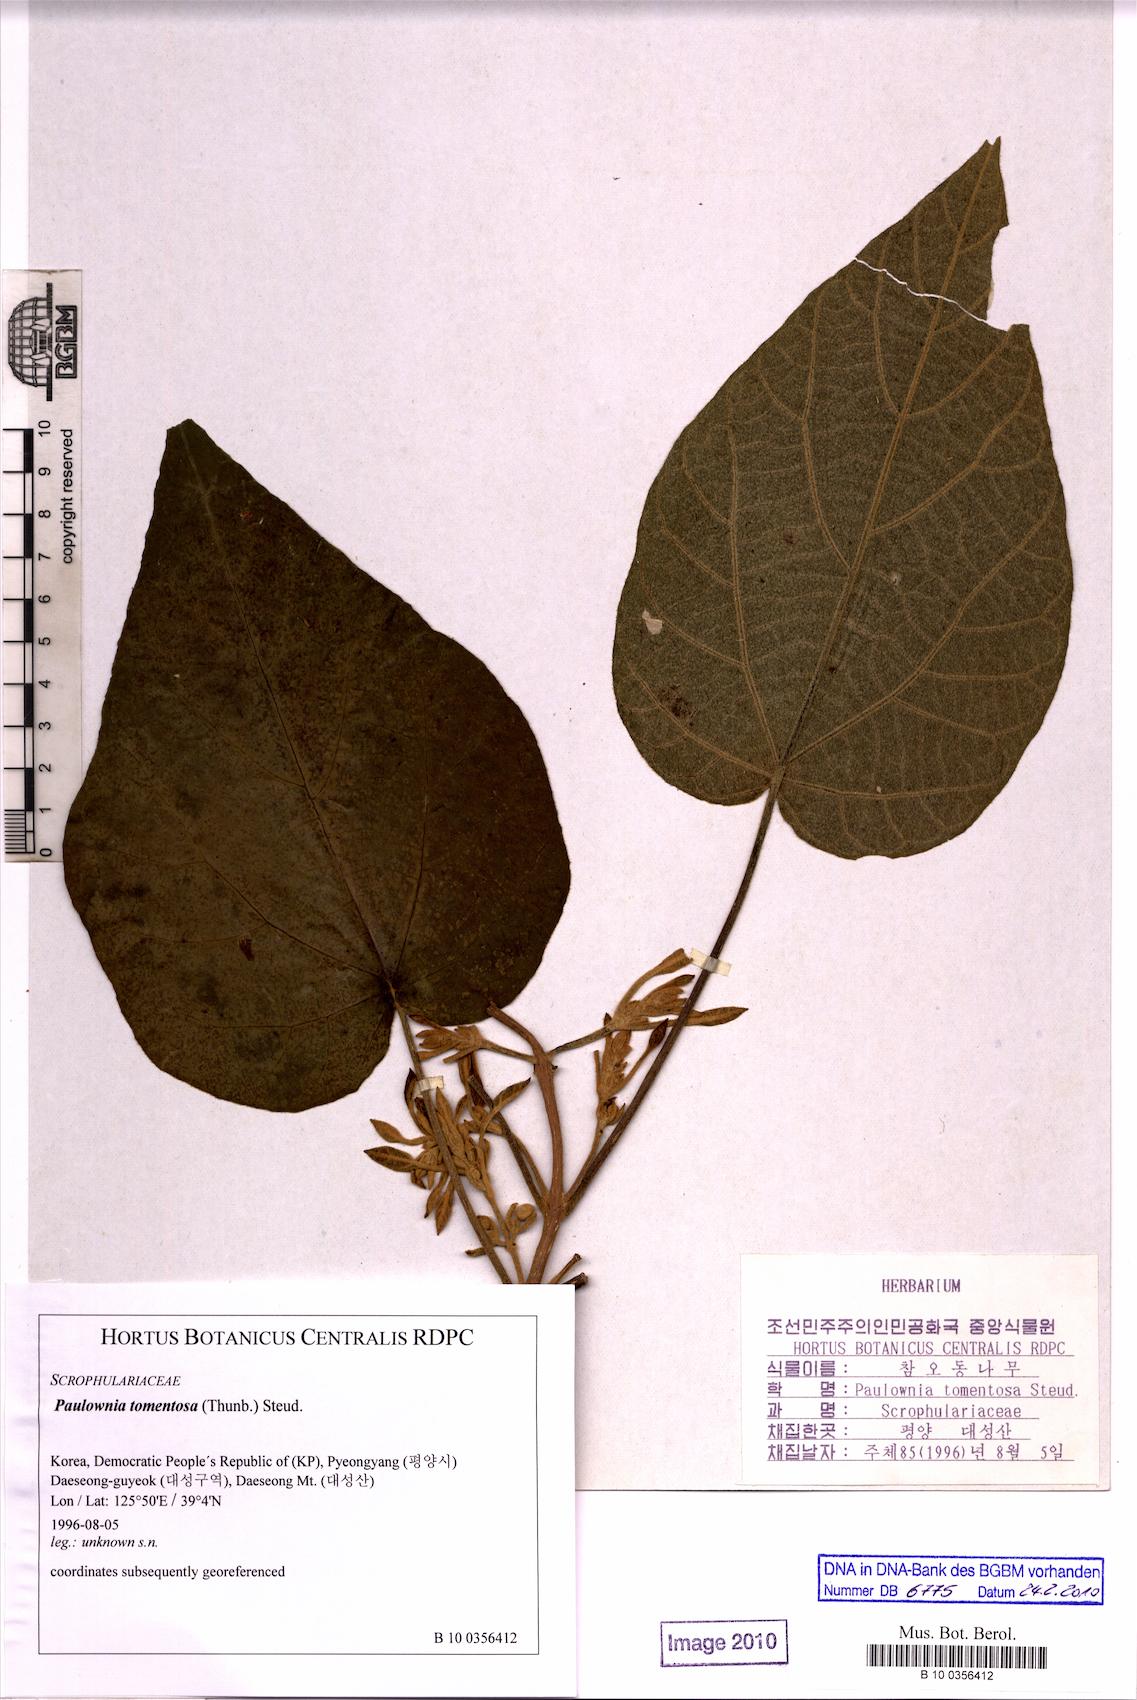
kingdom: Plantae
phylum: Tracheophyta
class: Magnoliopsida
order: Lamiales
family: Paulowniaceae
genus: Paulownia
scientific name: Paulownia tomentosa
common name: Foxglove-tree
